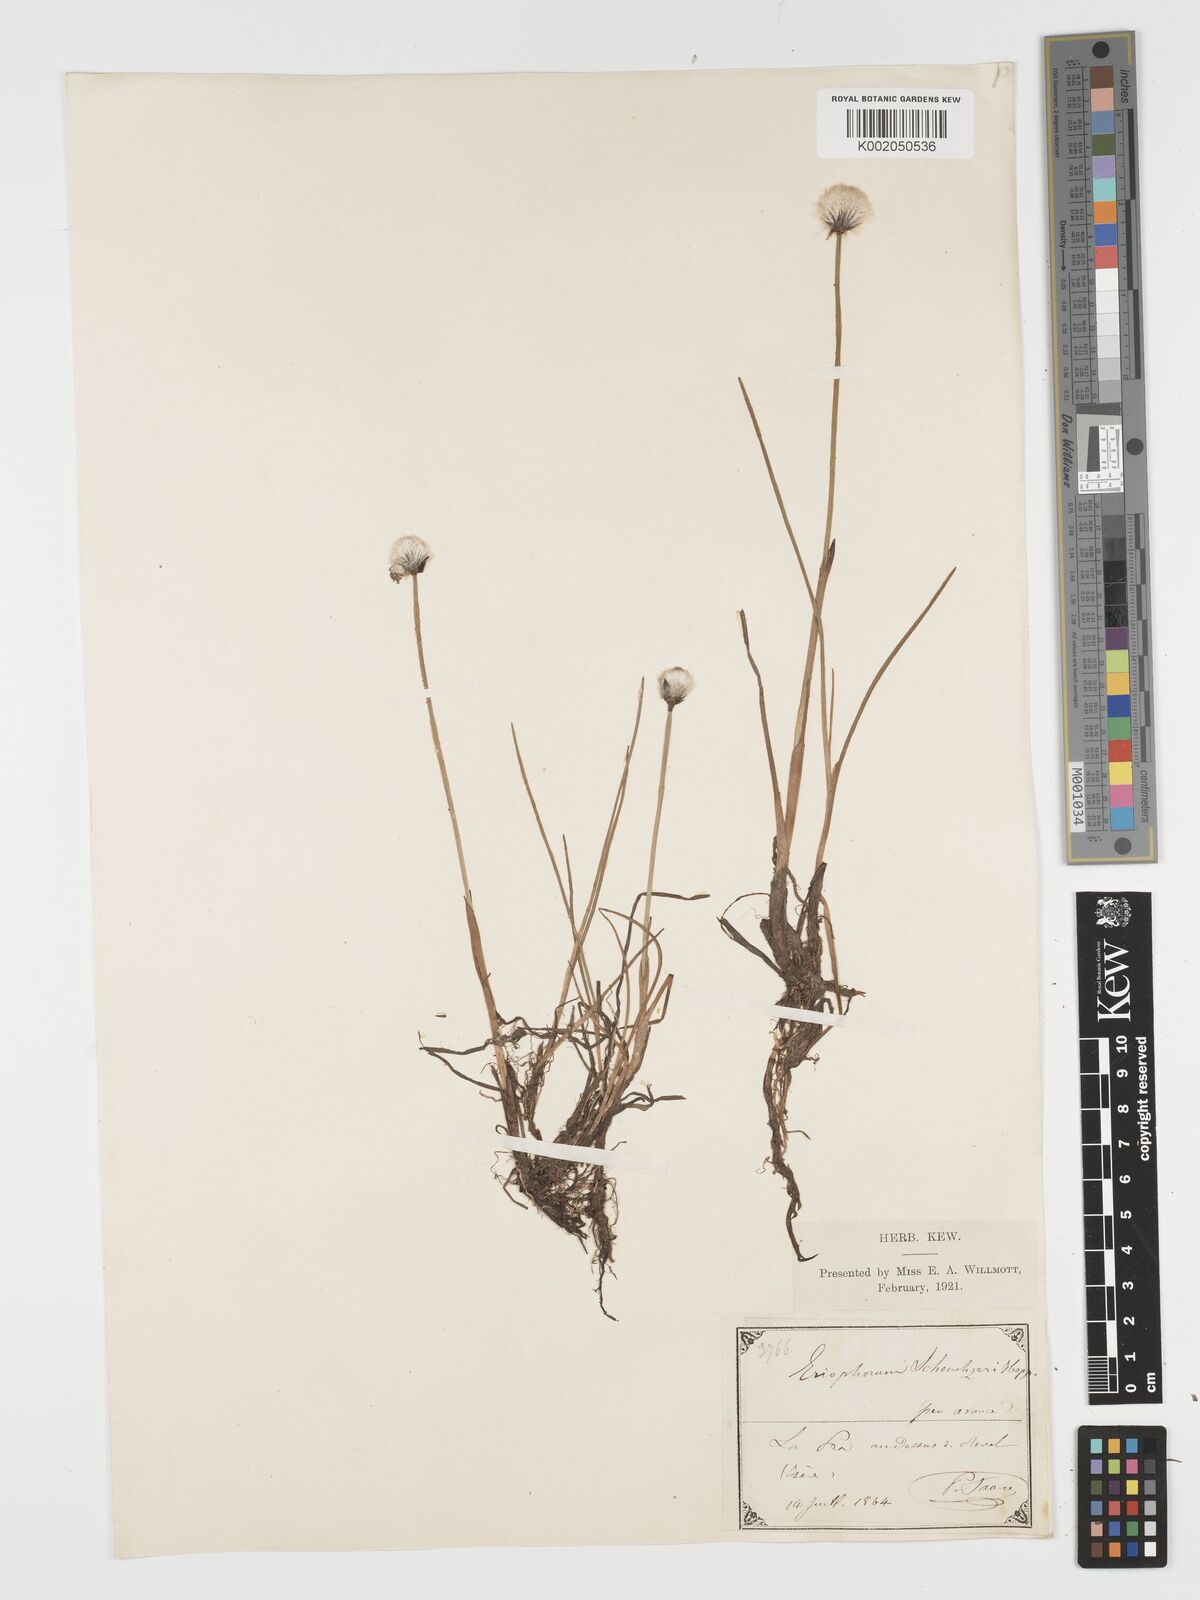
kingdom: Plantae
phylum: Tracheophyta
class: Liliopsida
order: Poales
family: Cyperaceae
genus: Eriophorum
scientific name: Eriophorum scheuchzeri
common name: Scheuchzer's cottongrass
